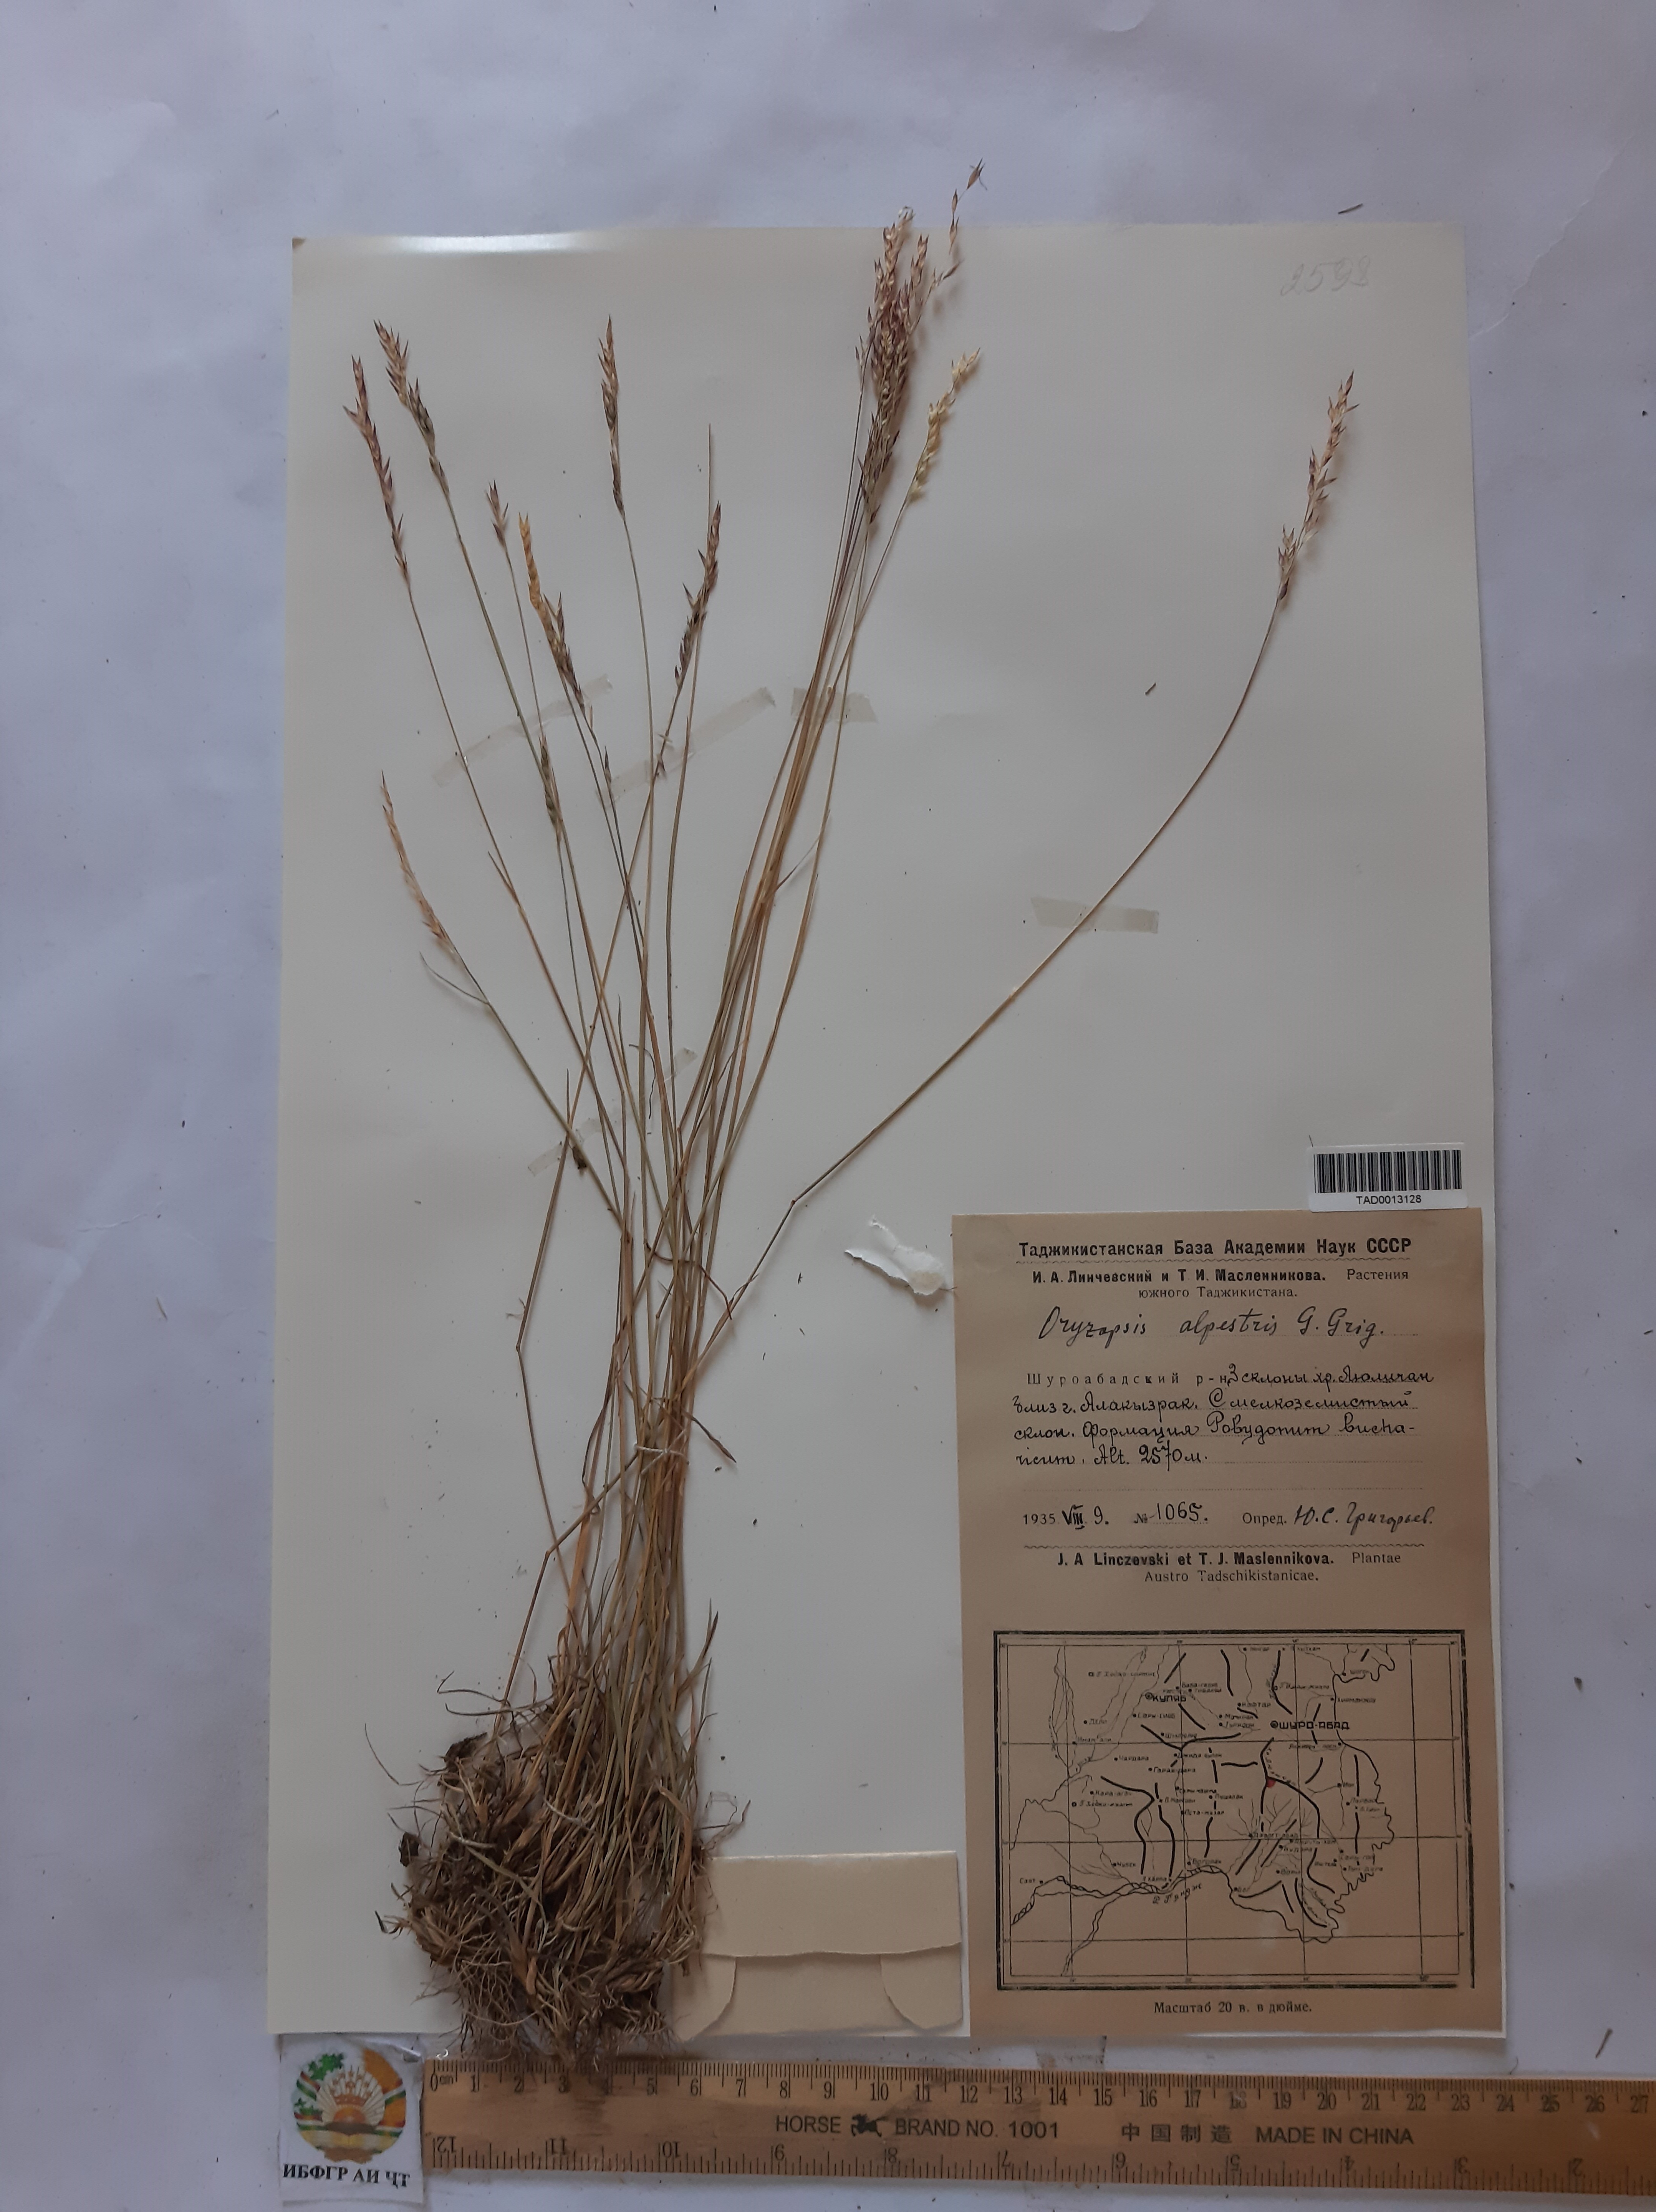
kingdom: Plantae
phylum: Tracheophyta
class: Liliopsida
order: Poales
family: Poaceae
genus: Piptatherum
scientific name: Piptatherum alpestre
